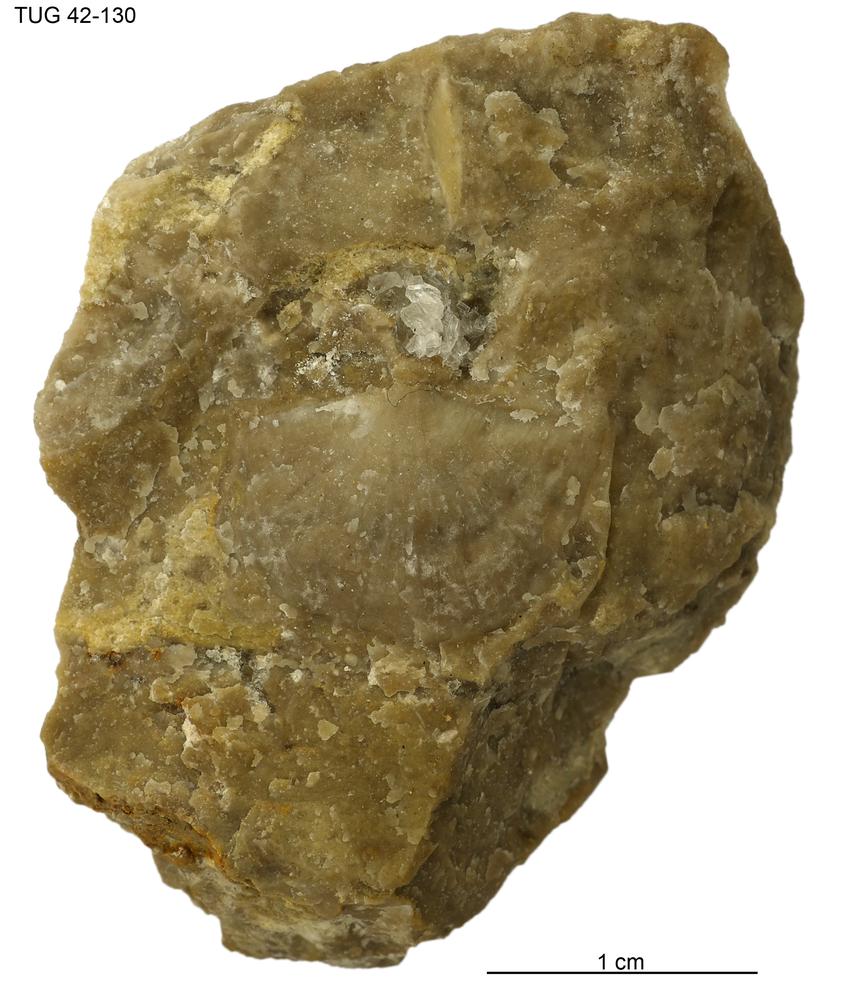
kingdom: Animalia
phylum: Brachiopoda
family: Strophomenidae
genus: Holtedahlina
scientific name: Holtedahlina
